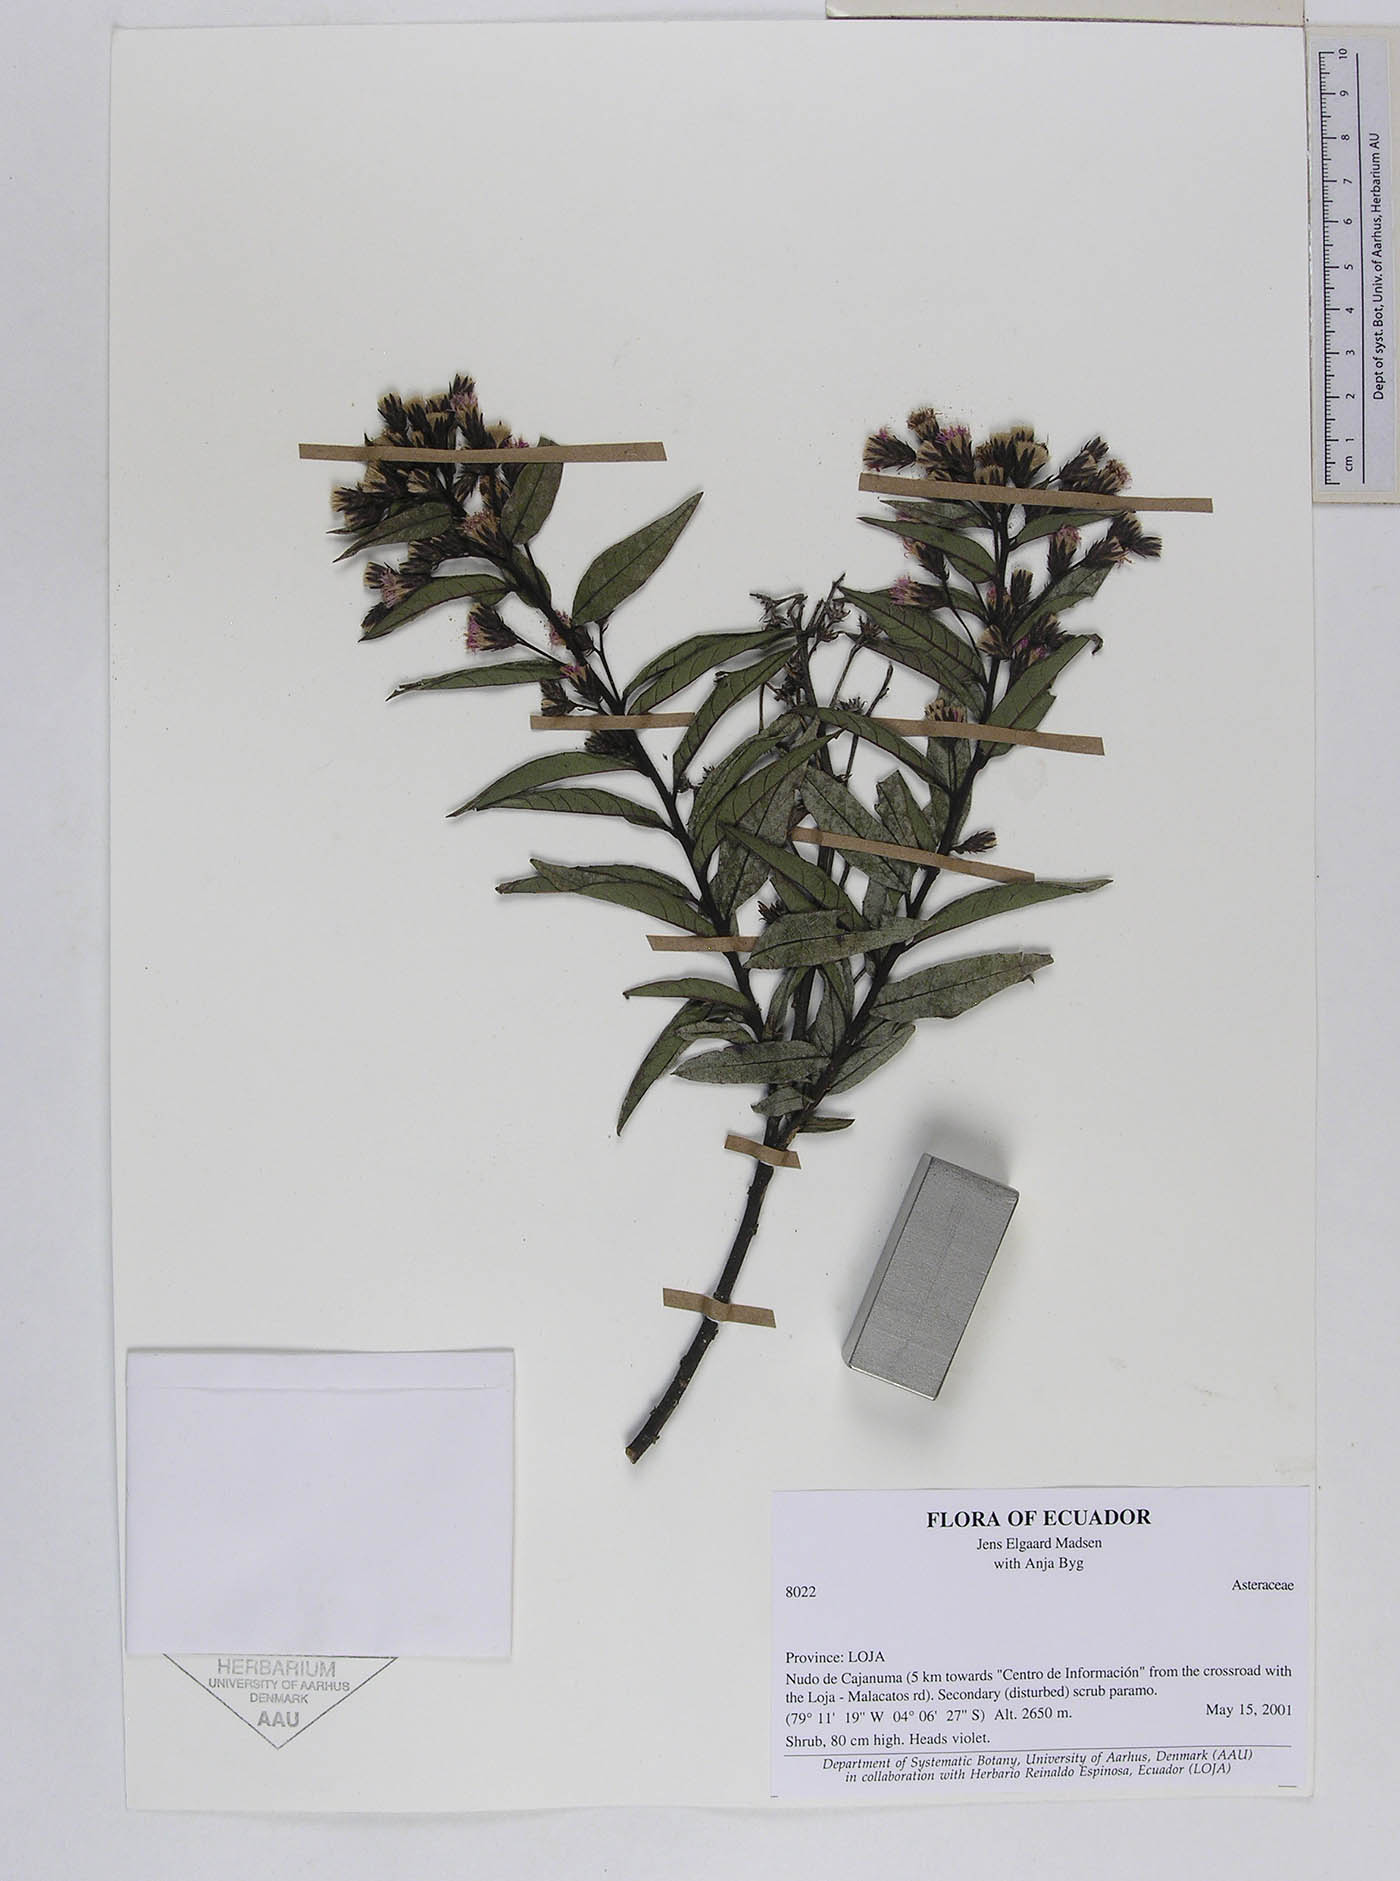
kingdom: Plantae
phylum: Tracheophyta
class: Magnoliopsida
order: Asterales
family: Asteraceae
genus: Lepidaploa
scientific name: Lepidaploa sordidopapposa
